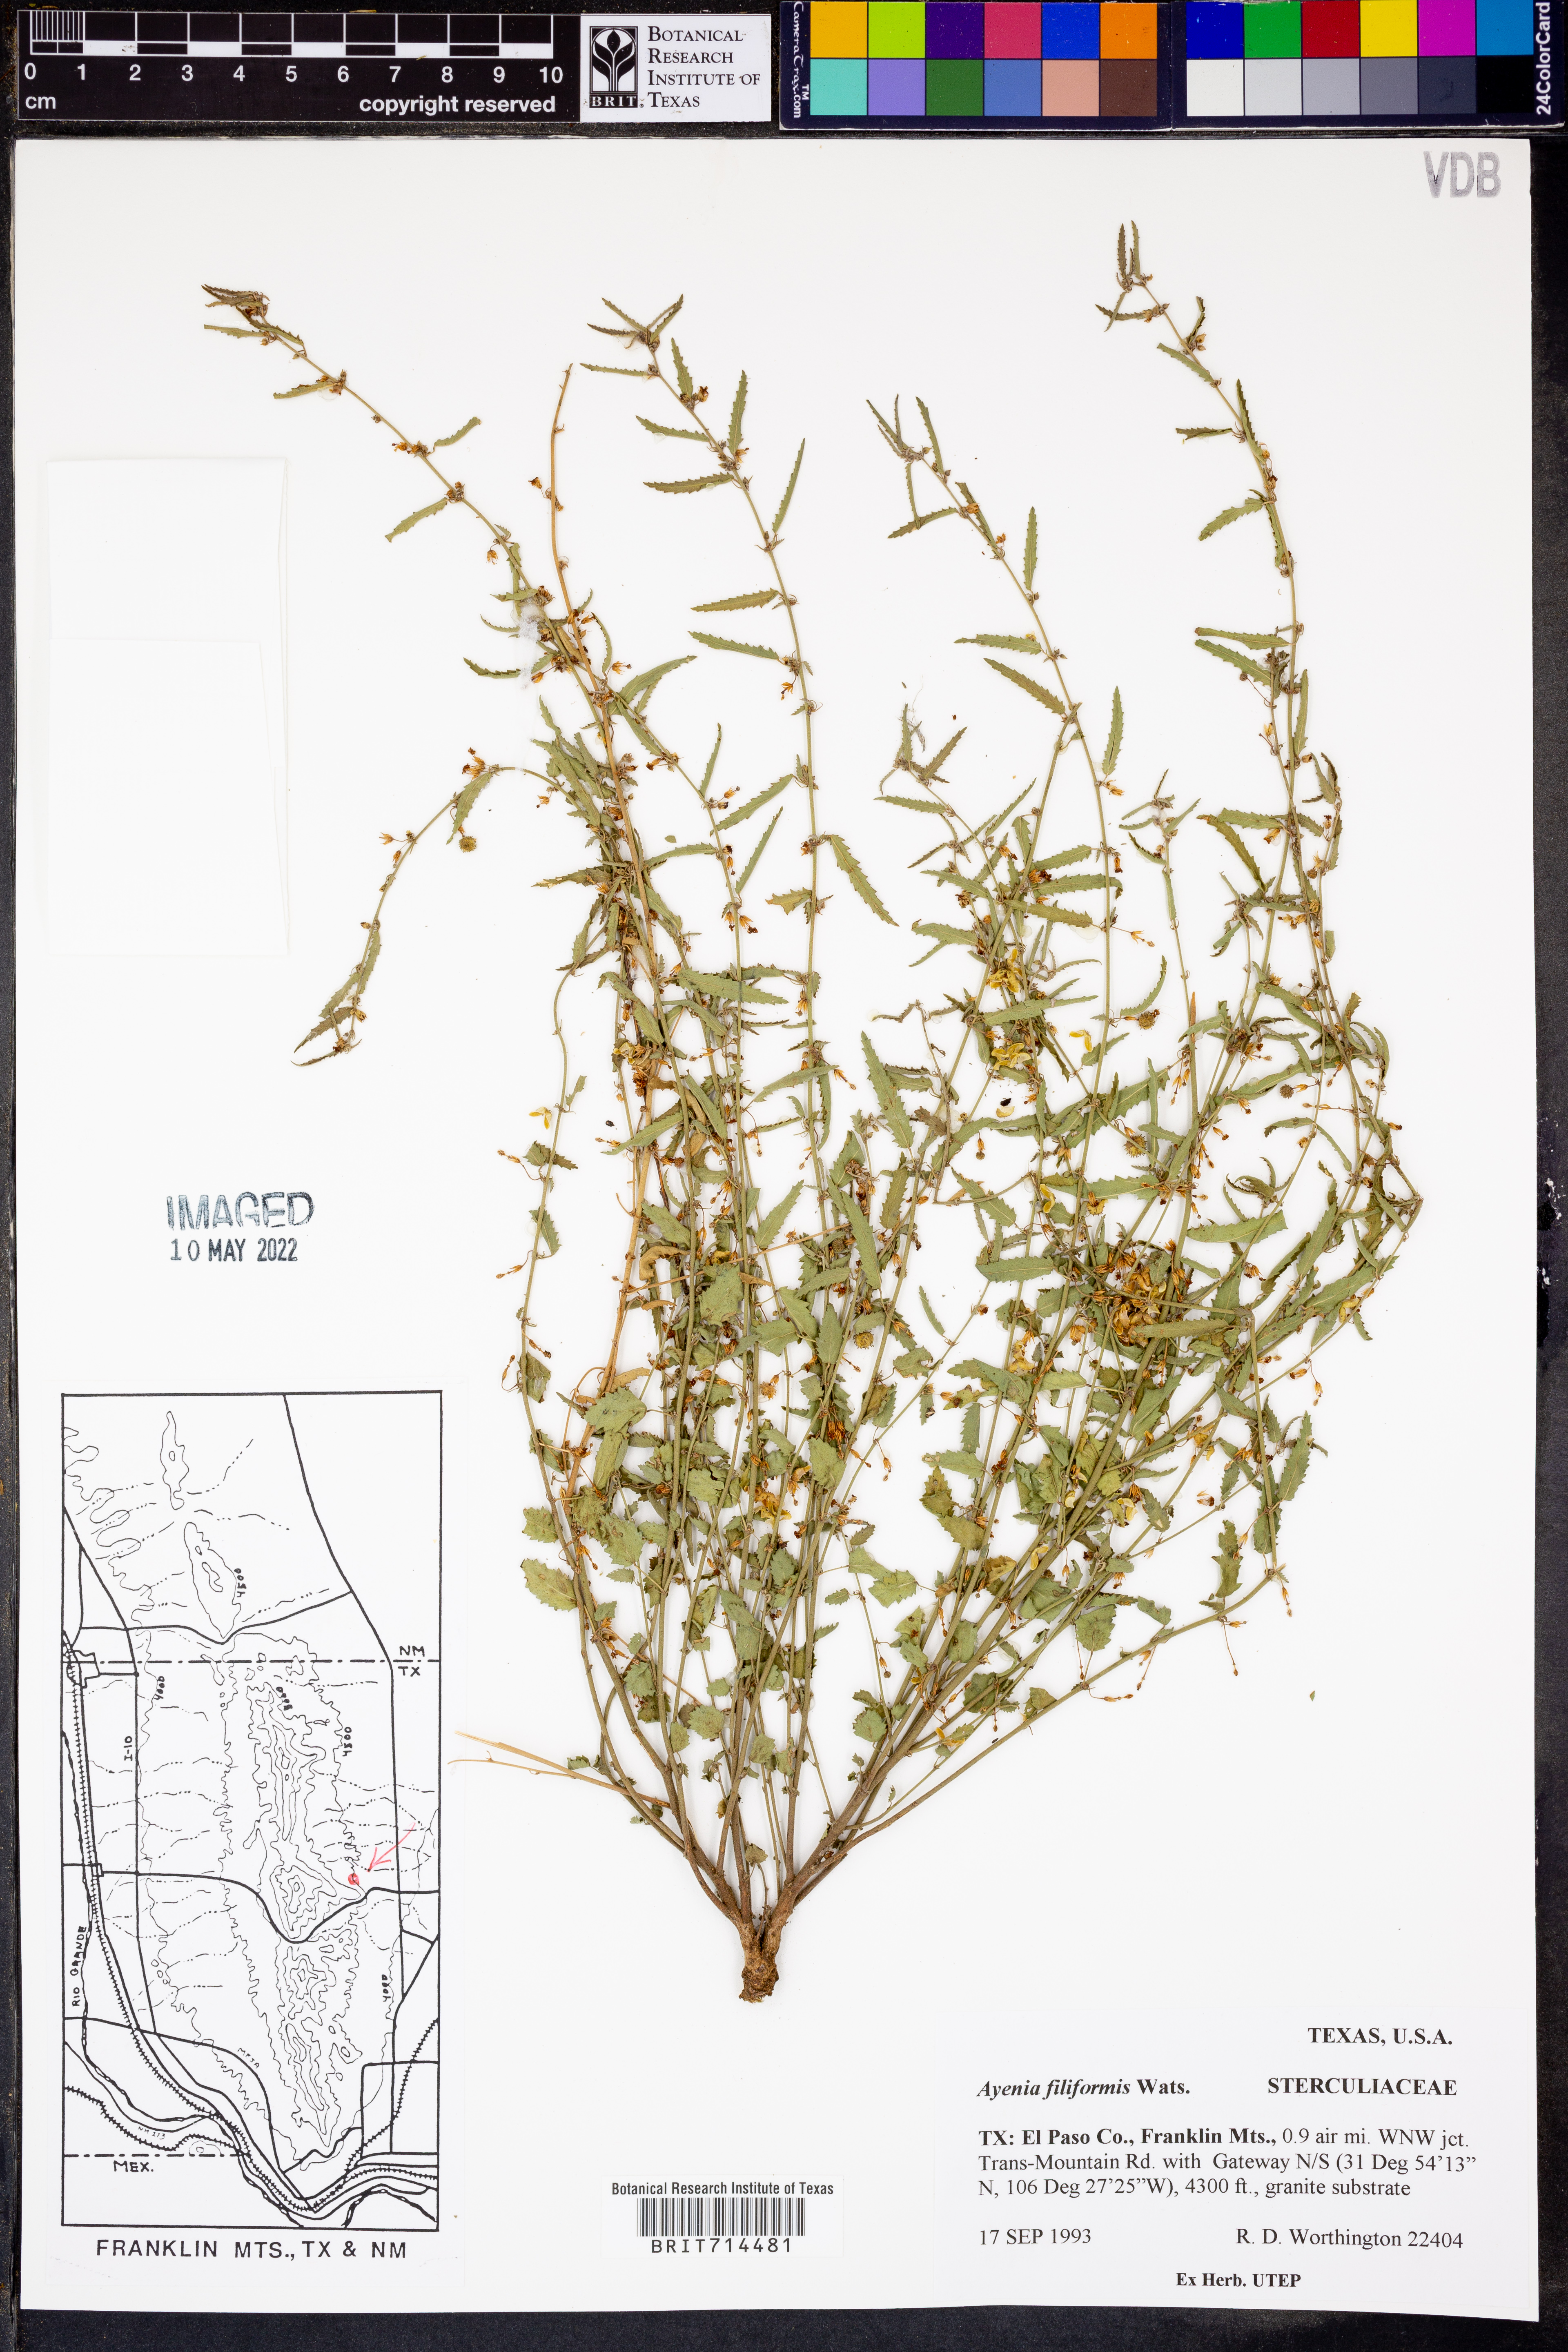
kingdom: Plantae
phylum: Tracheophyta
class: Magnoliopsida
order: Malvales
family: Malvaceae
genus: Ayenia
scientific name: Ayenia filiformis
